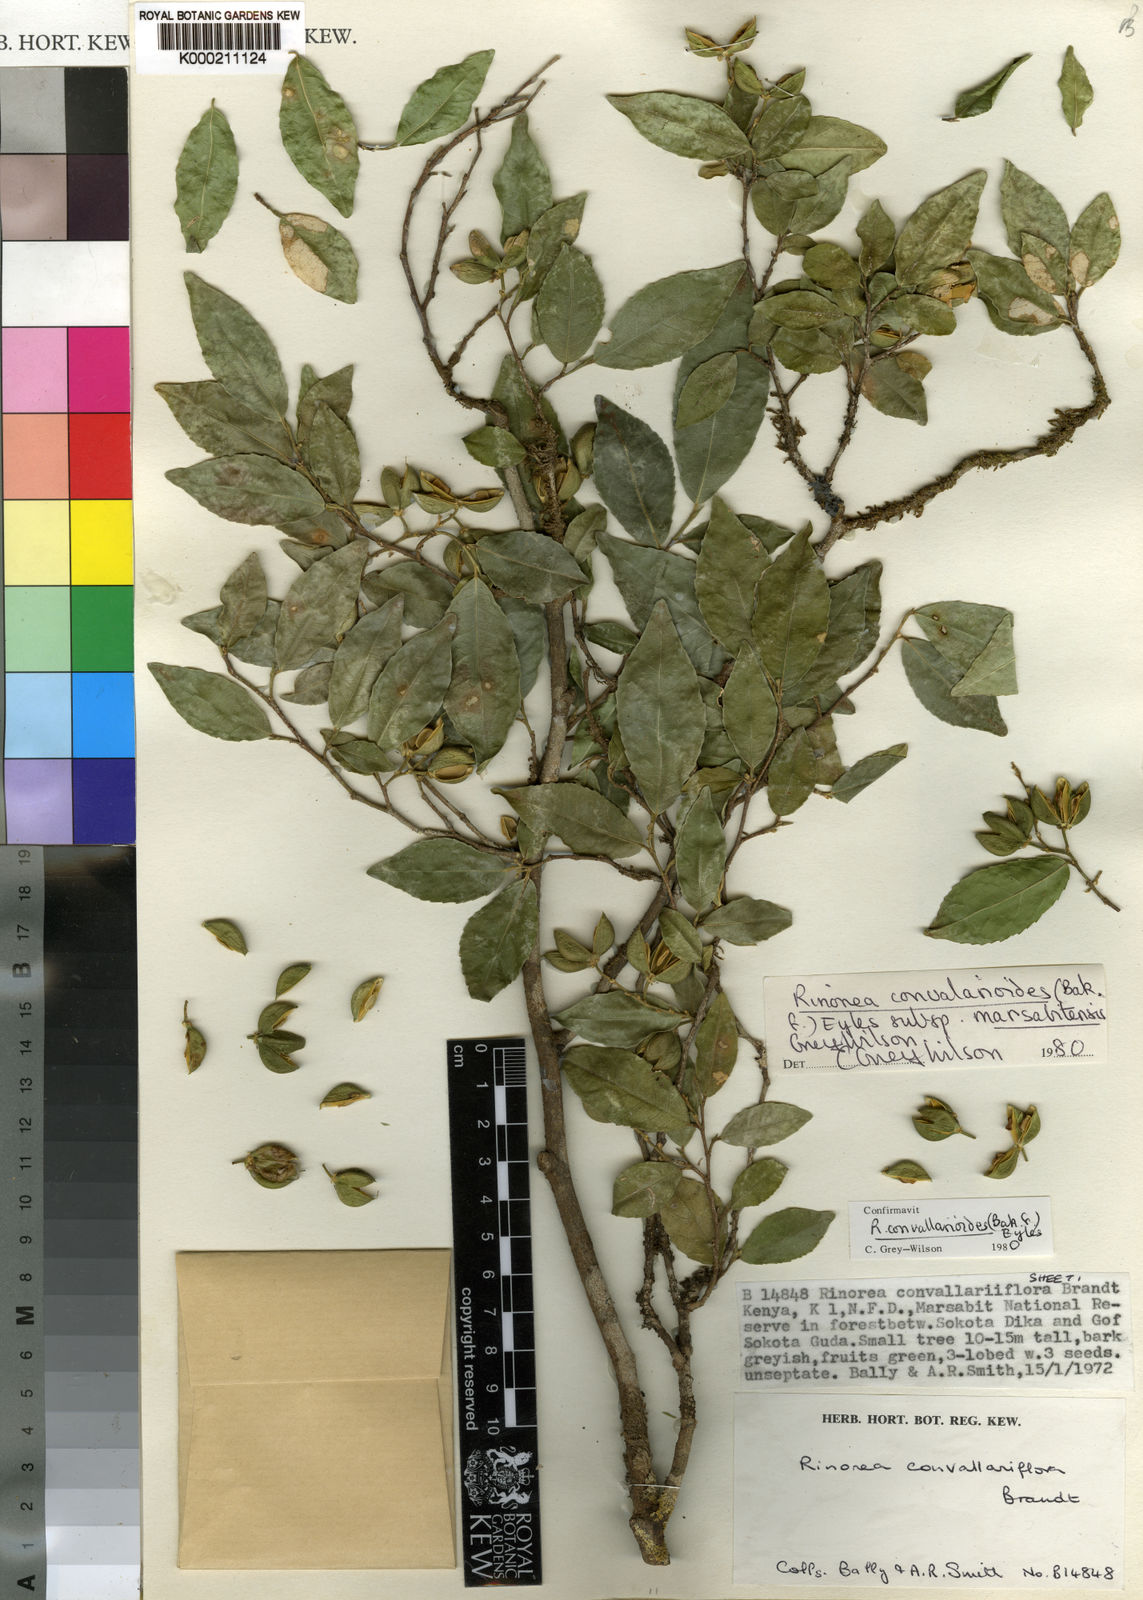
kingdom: Plantae
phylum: Tracheophyta
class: Magnoliopsida
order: Malpighiales
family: Violaceae
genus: Rinorea
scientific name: Rinorea convallarioides
